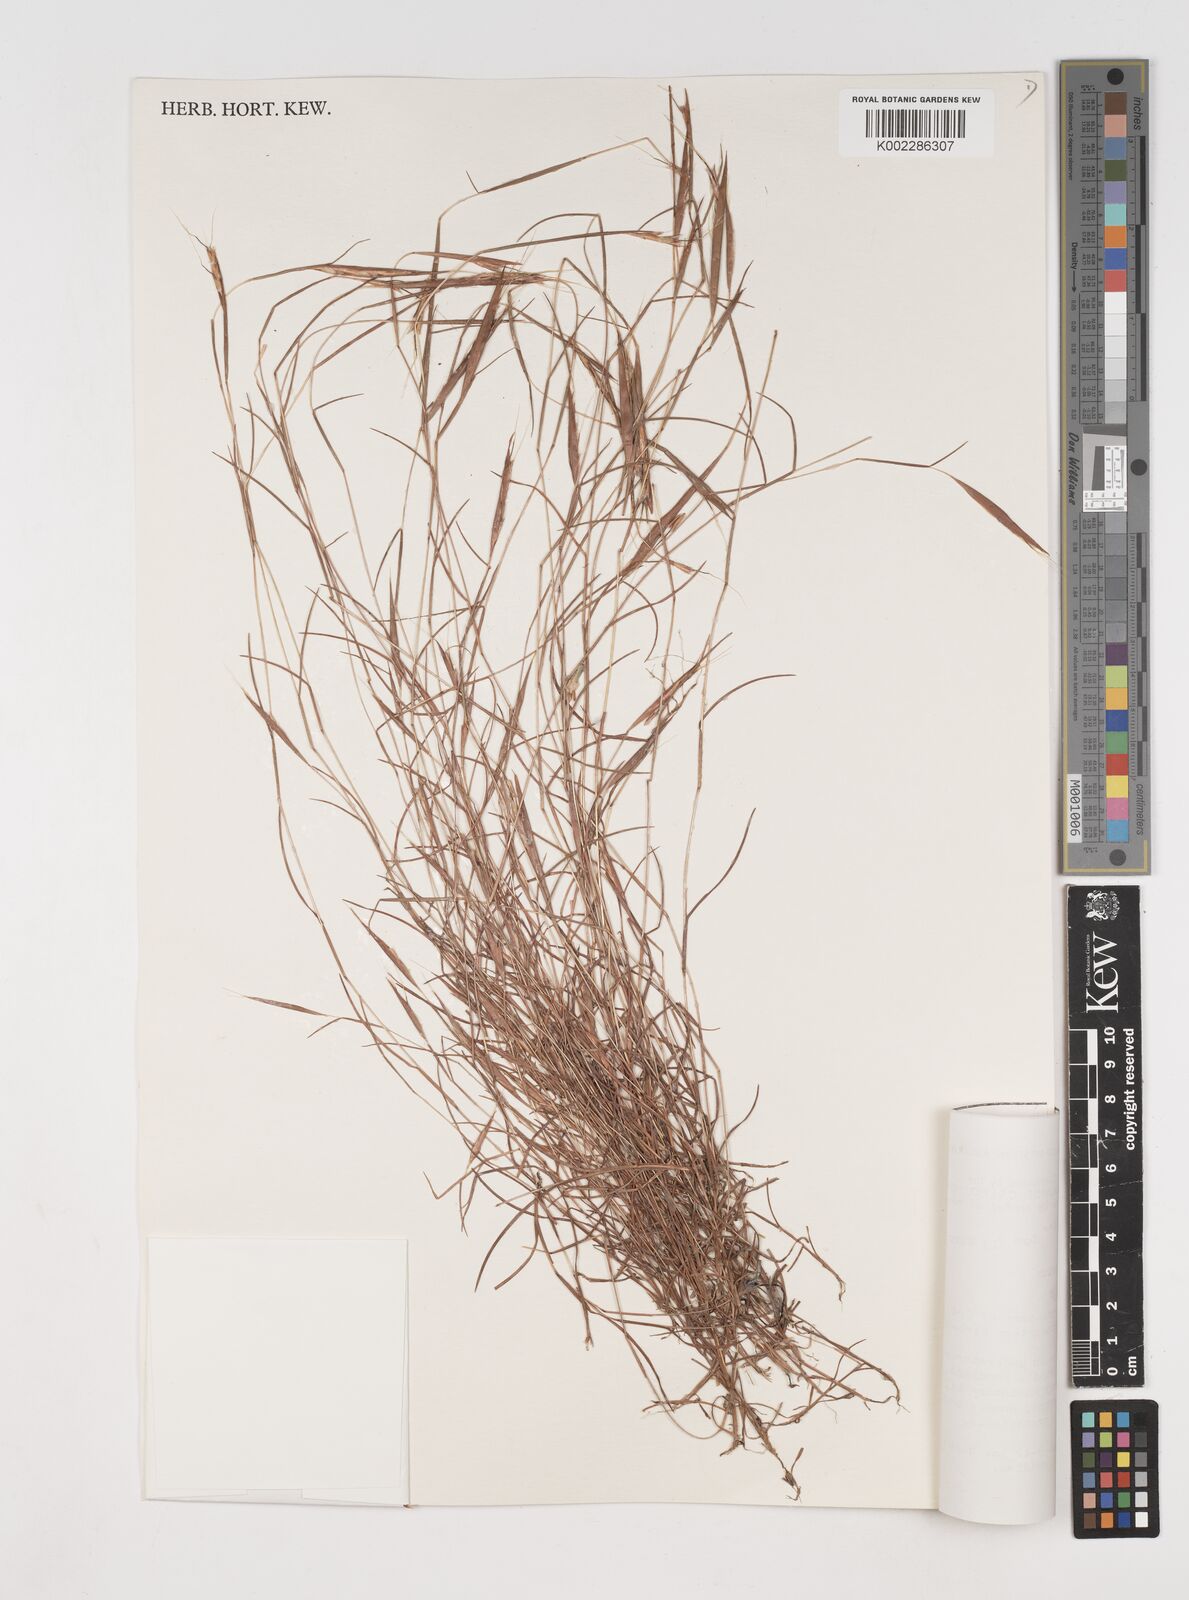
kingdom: Plantae
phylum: Tracheophyta
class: Liliopsida
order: Poales
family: Poaceae
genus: Schizachyrium
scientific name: Schizachyrium
